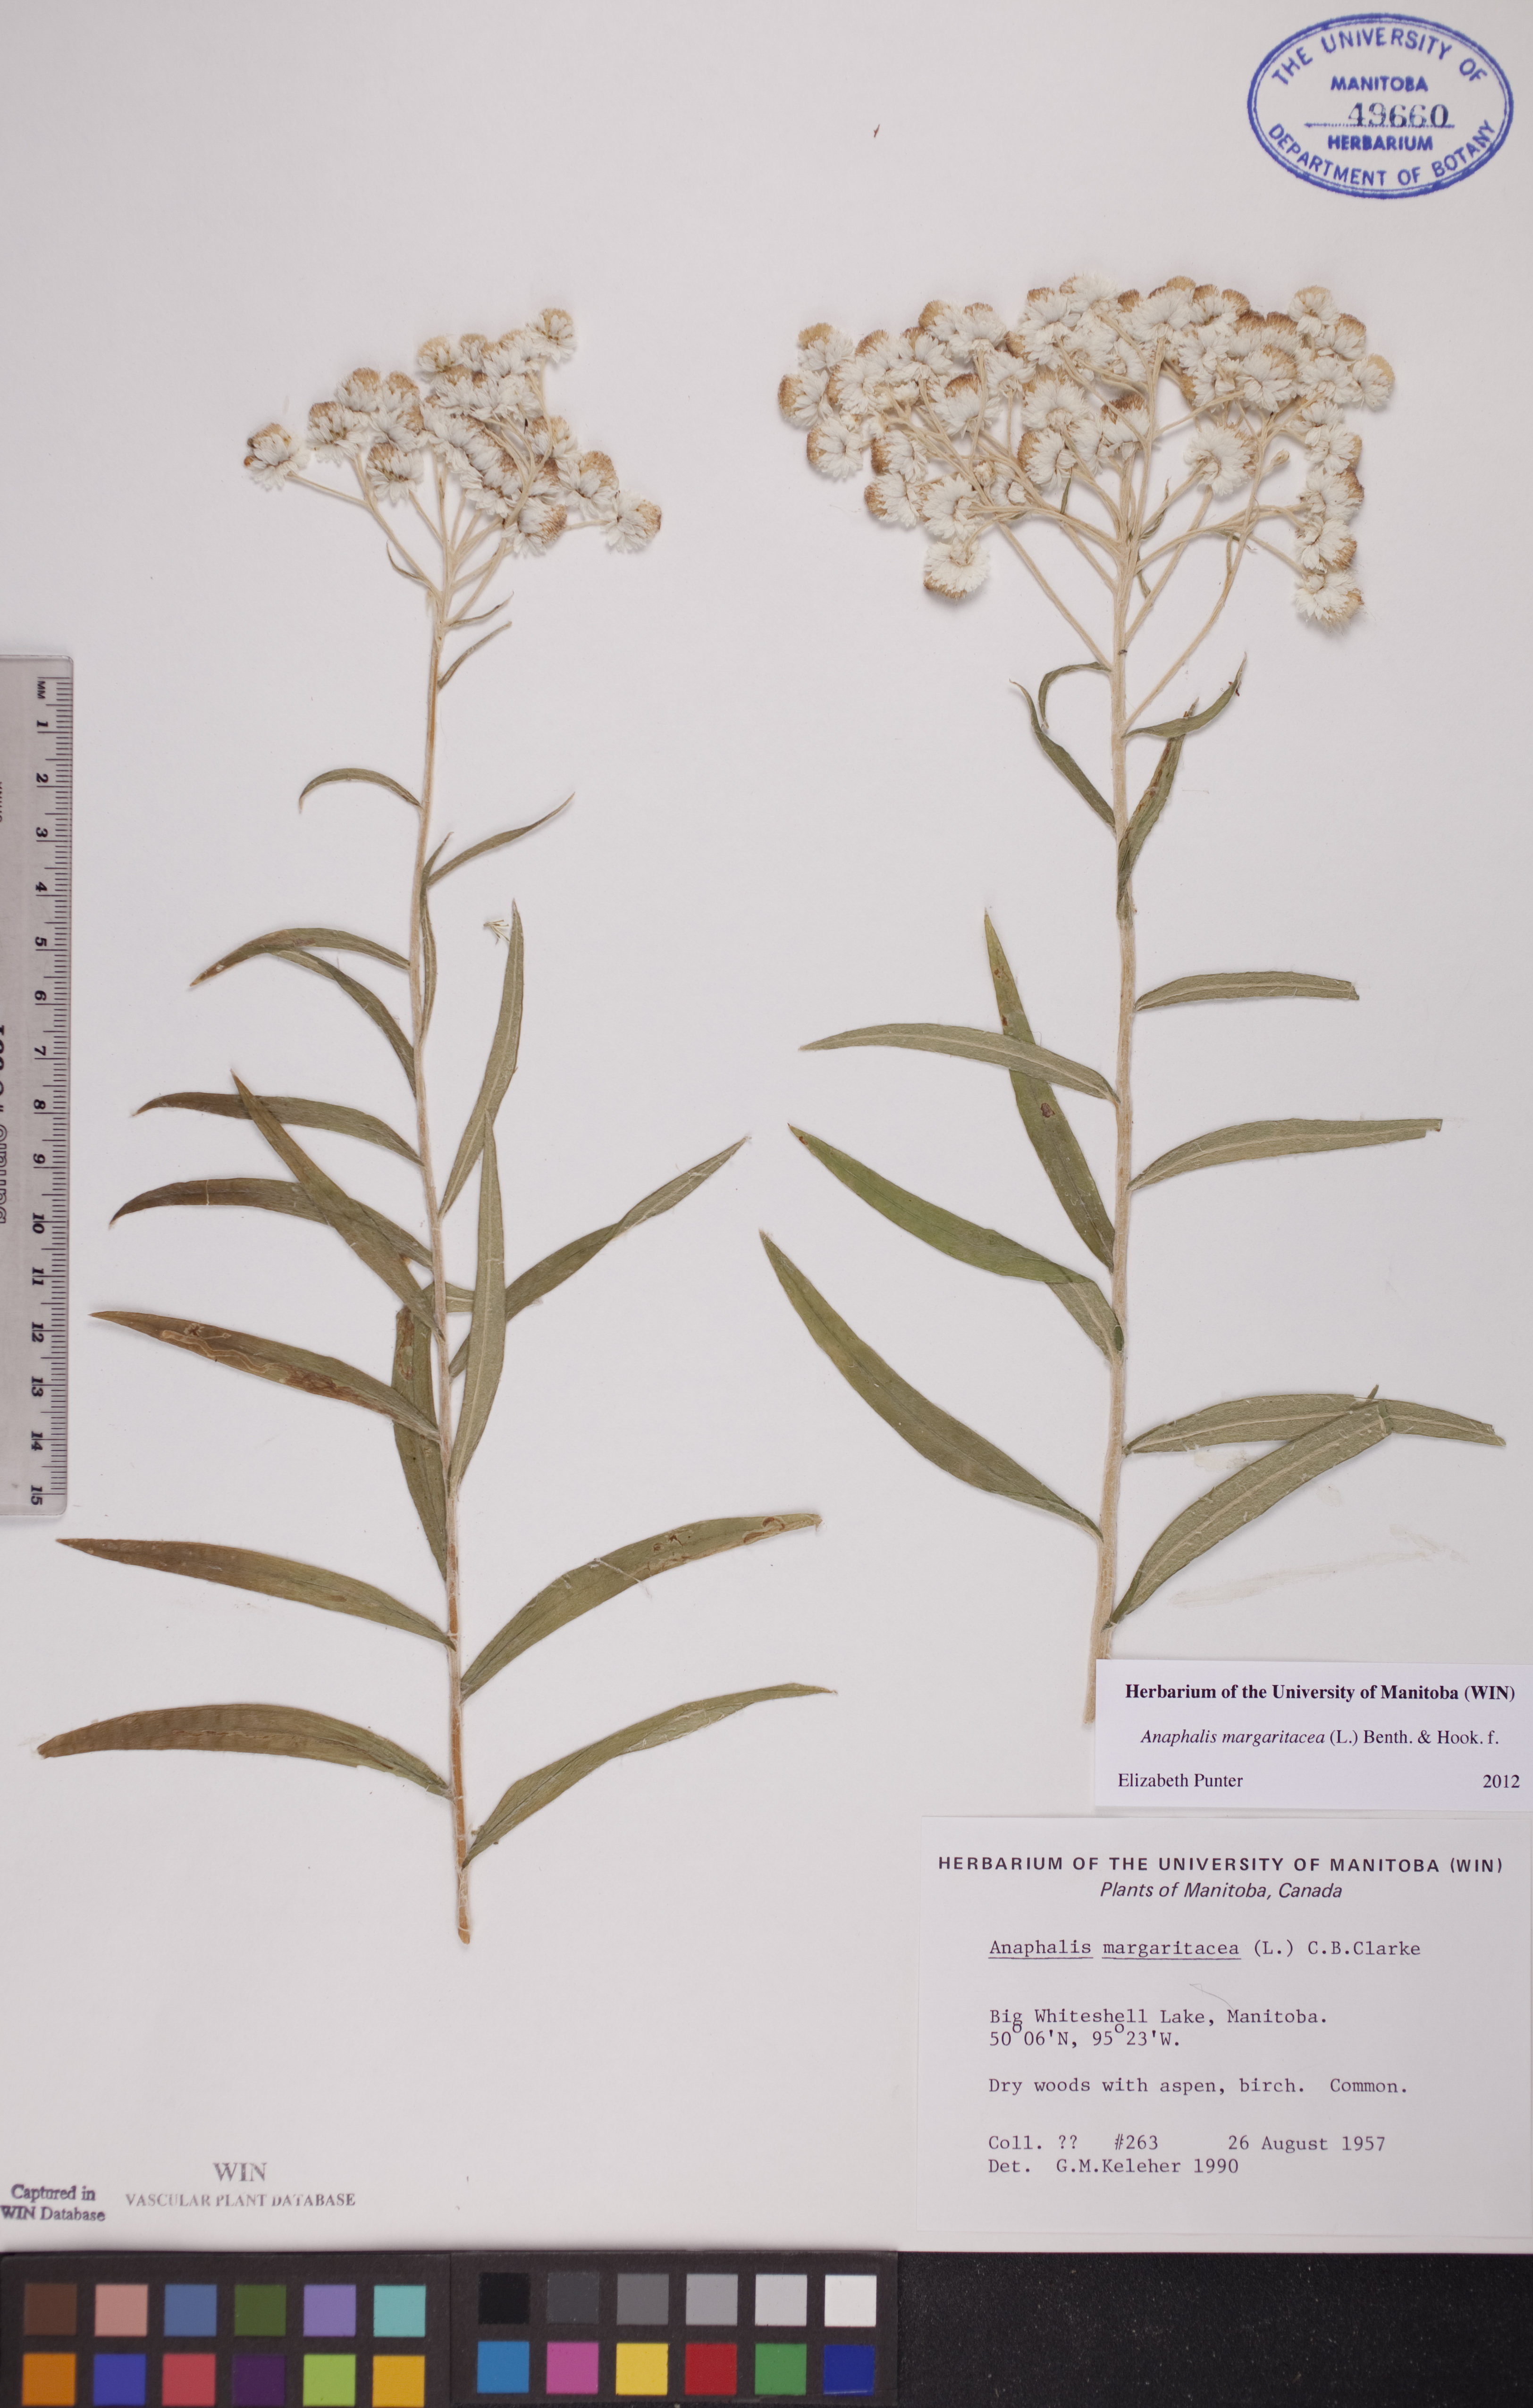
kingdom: Plantae
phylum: Tracheophyta
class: Magnoliopsida
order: Asterales
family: Asteraceae
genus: Anaphalis
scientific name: Anaphalis margaritacea
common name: Pearly everlasting
